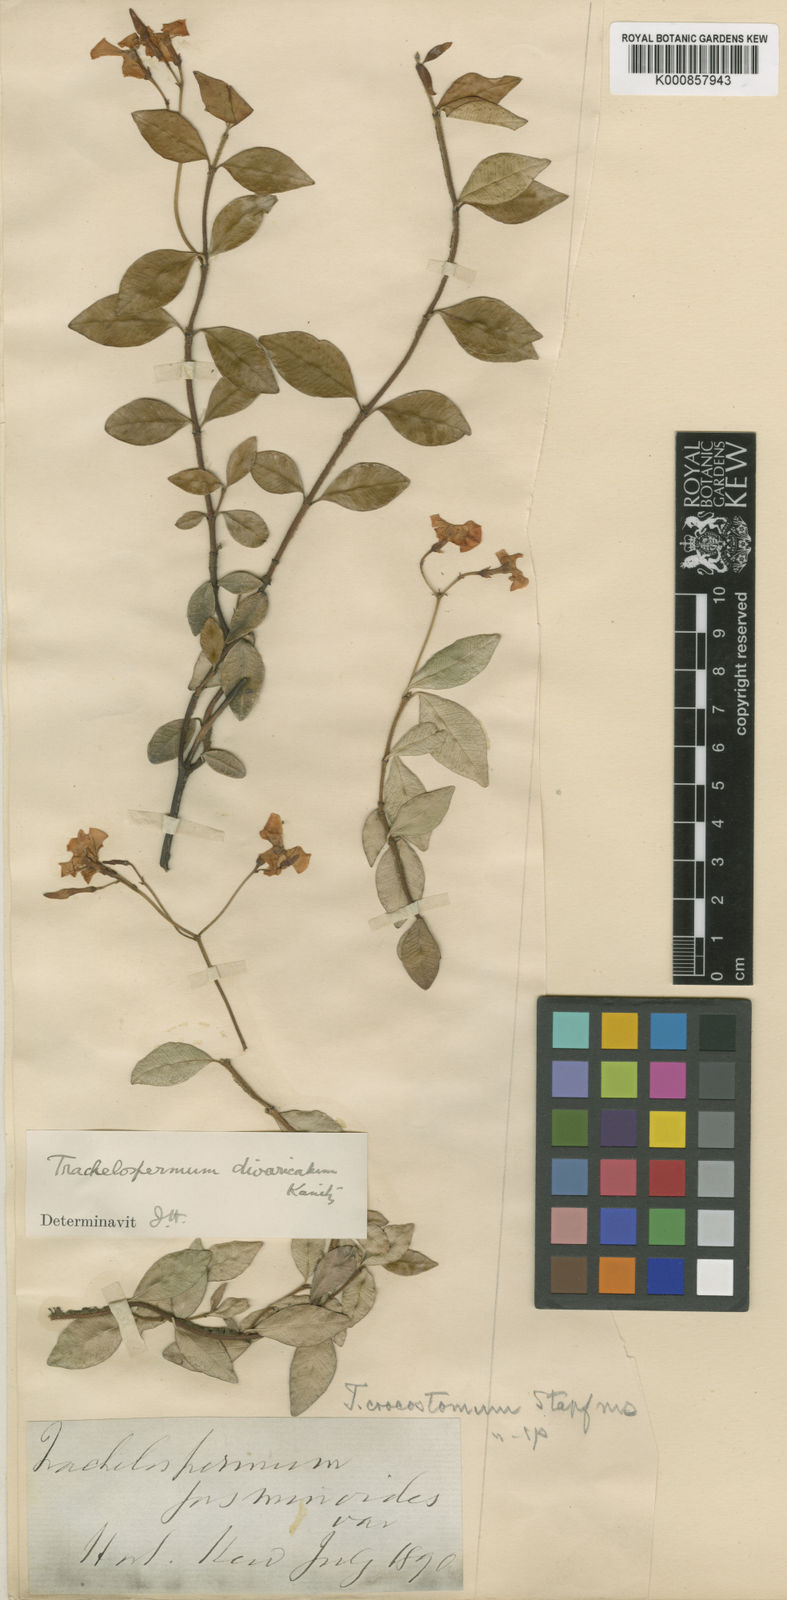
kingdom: Plantae
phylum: Tracheophyta
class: Magnoliopsida
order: Gentianales
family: Apocynaceae
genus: Trachelospermum
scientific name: Trachelospermum asiaticum
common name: Asiatic jasmine
